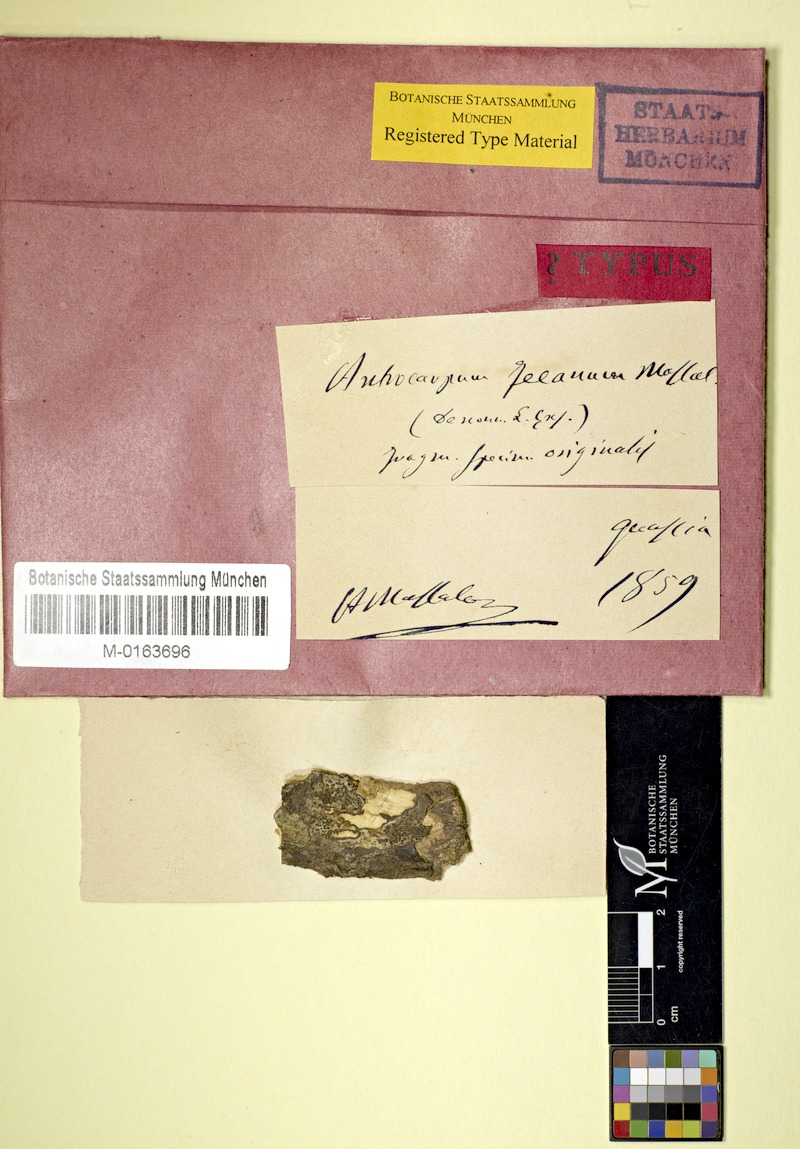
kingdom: Fungi
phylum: Ascomycota
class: Lecanoromycetes
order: Ostropales
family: Graphidaceae
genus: Phaeotrema
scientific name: Phaeotrema feeanum
